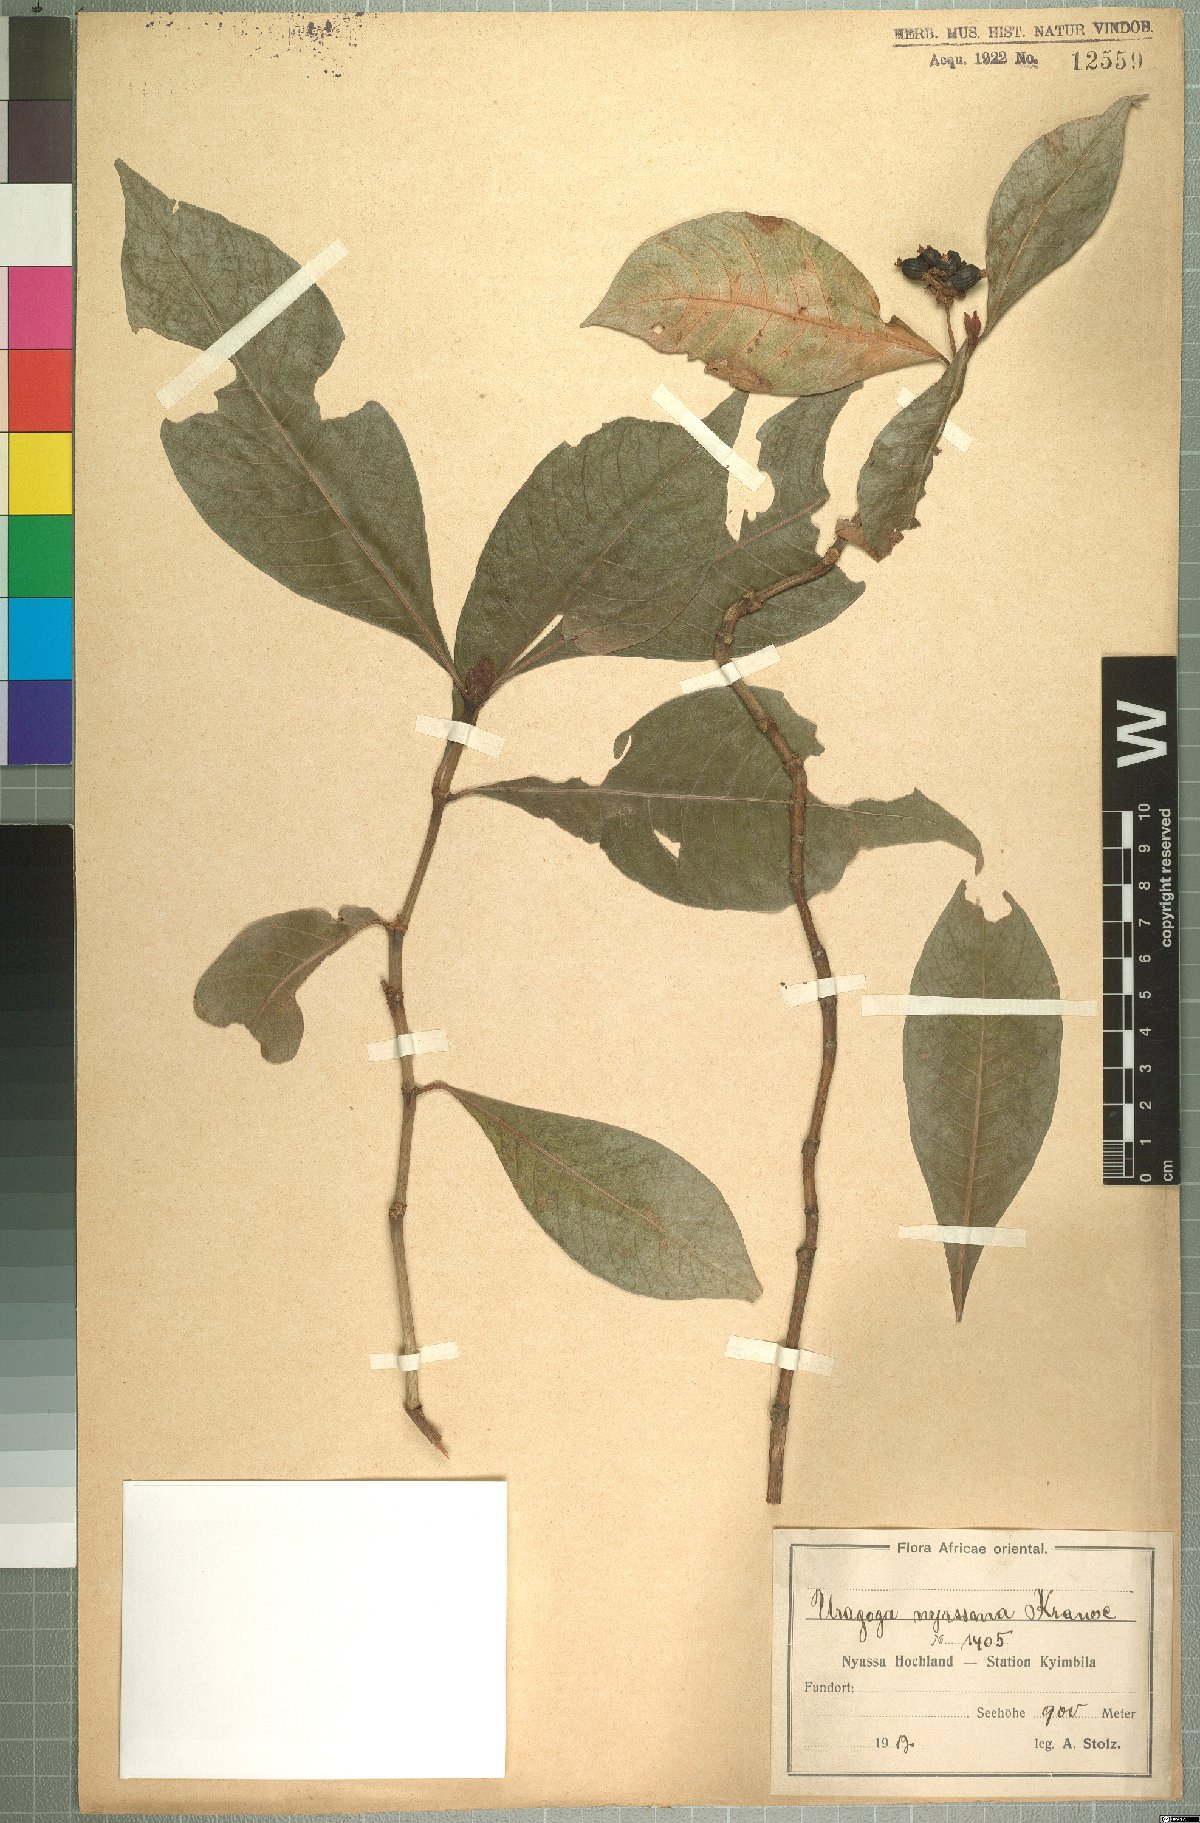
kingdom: Plantae
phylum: Tracheophyta
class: Magnoliopsida
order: Gentianales
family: Rubiaceae
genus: Psychotria
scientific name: Psychotria peduncularis
